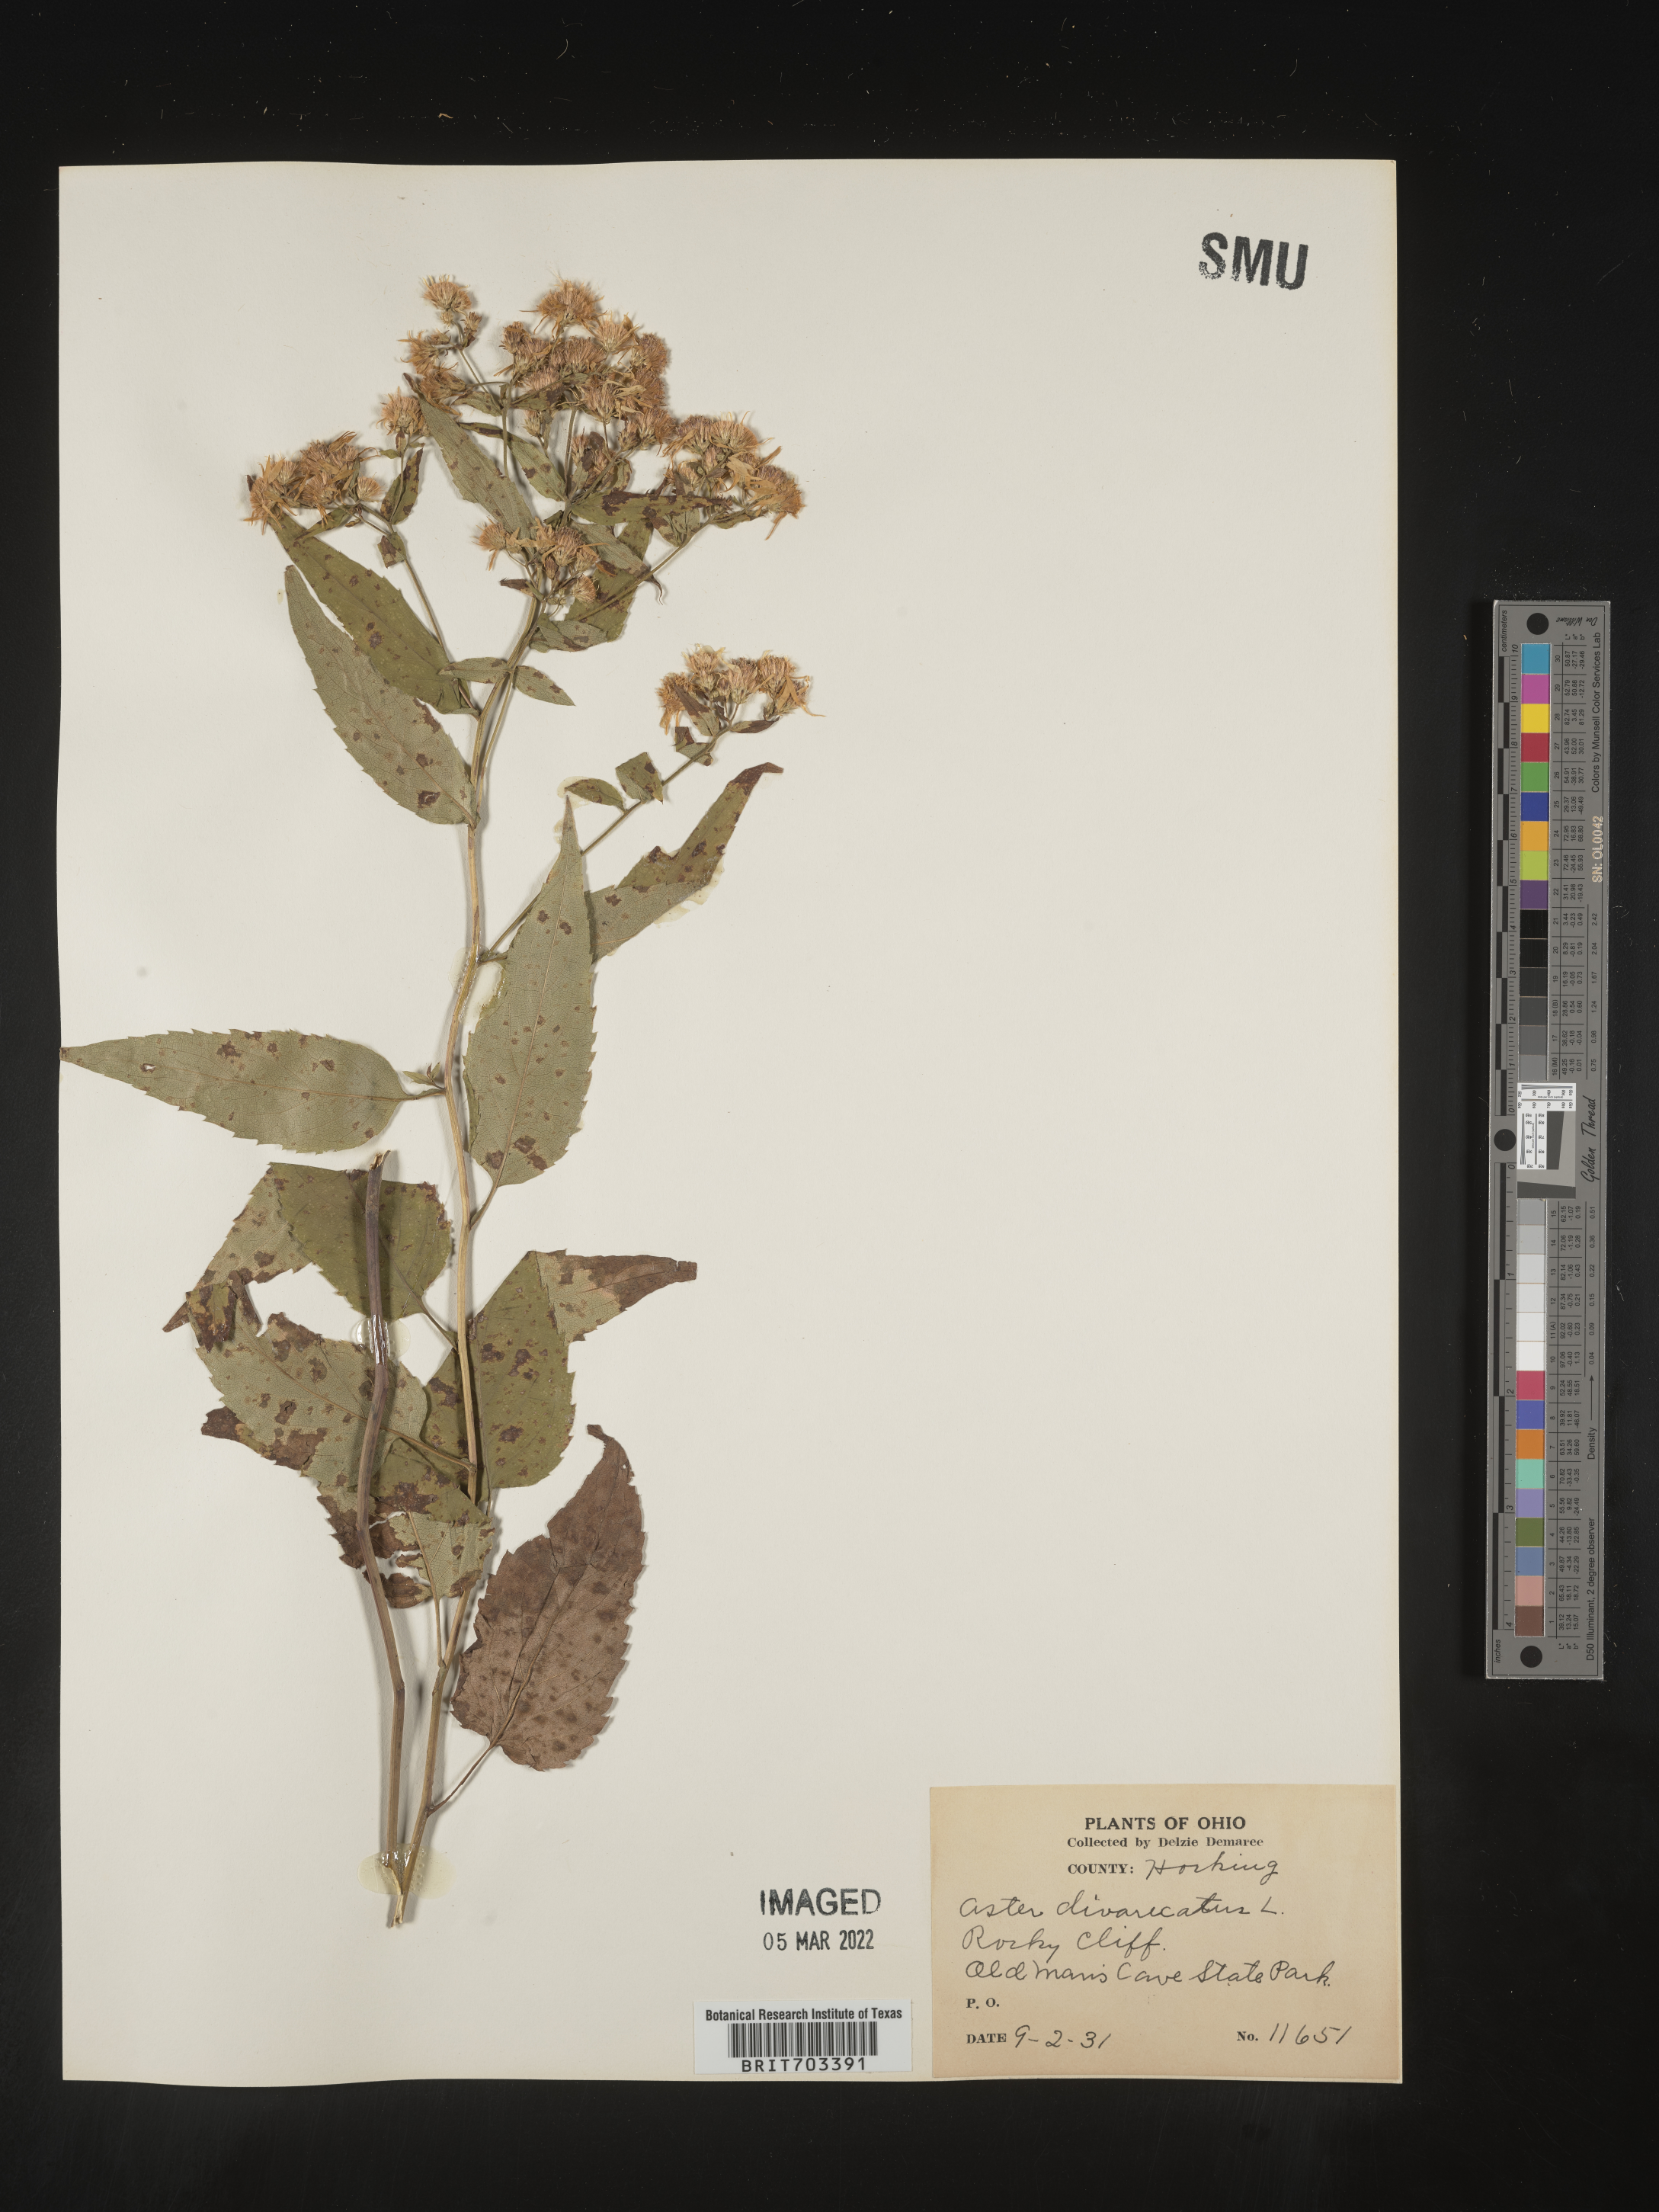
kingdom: Plantae
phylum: Tracheophyta
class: Magnoliopsida
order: Asterales
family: Asteraceae
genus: Eurybia
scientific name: Eurybia divaricata
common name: White wood aster
